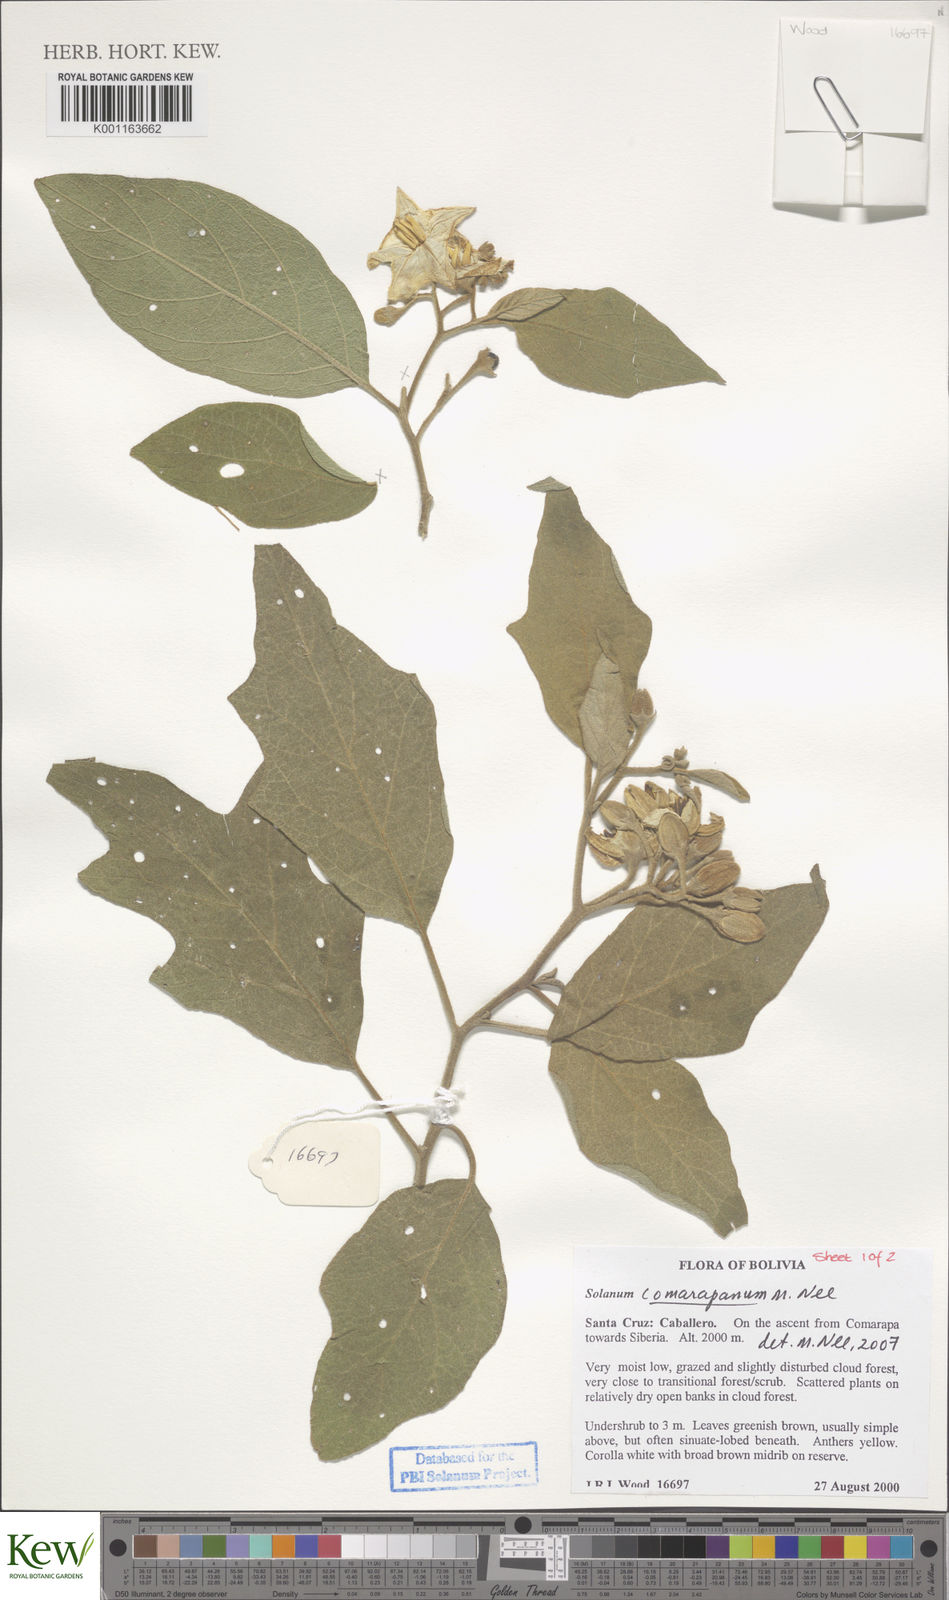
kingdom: Plantae
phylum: Tracheophyta
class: Magnoliopsida
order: Solanales
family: Solanaceae
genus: Solanum
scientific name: Solanum comarapanum
